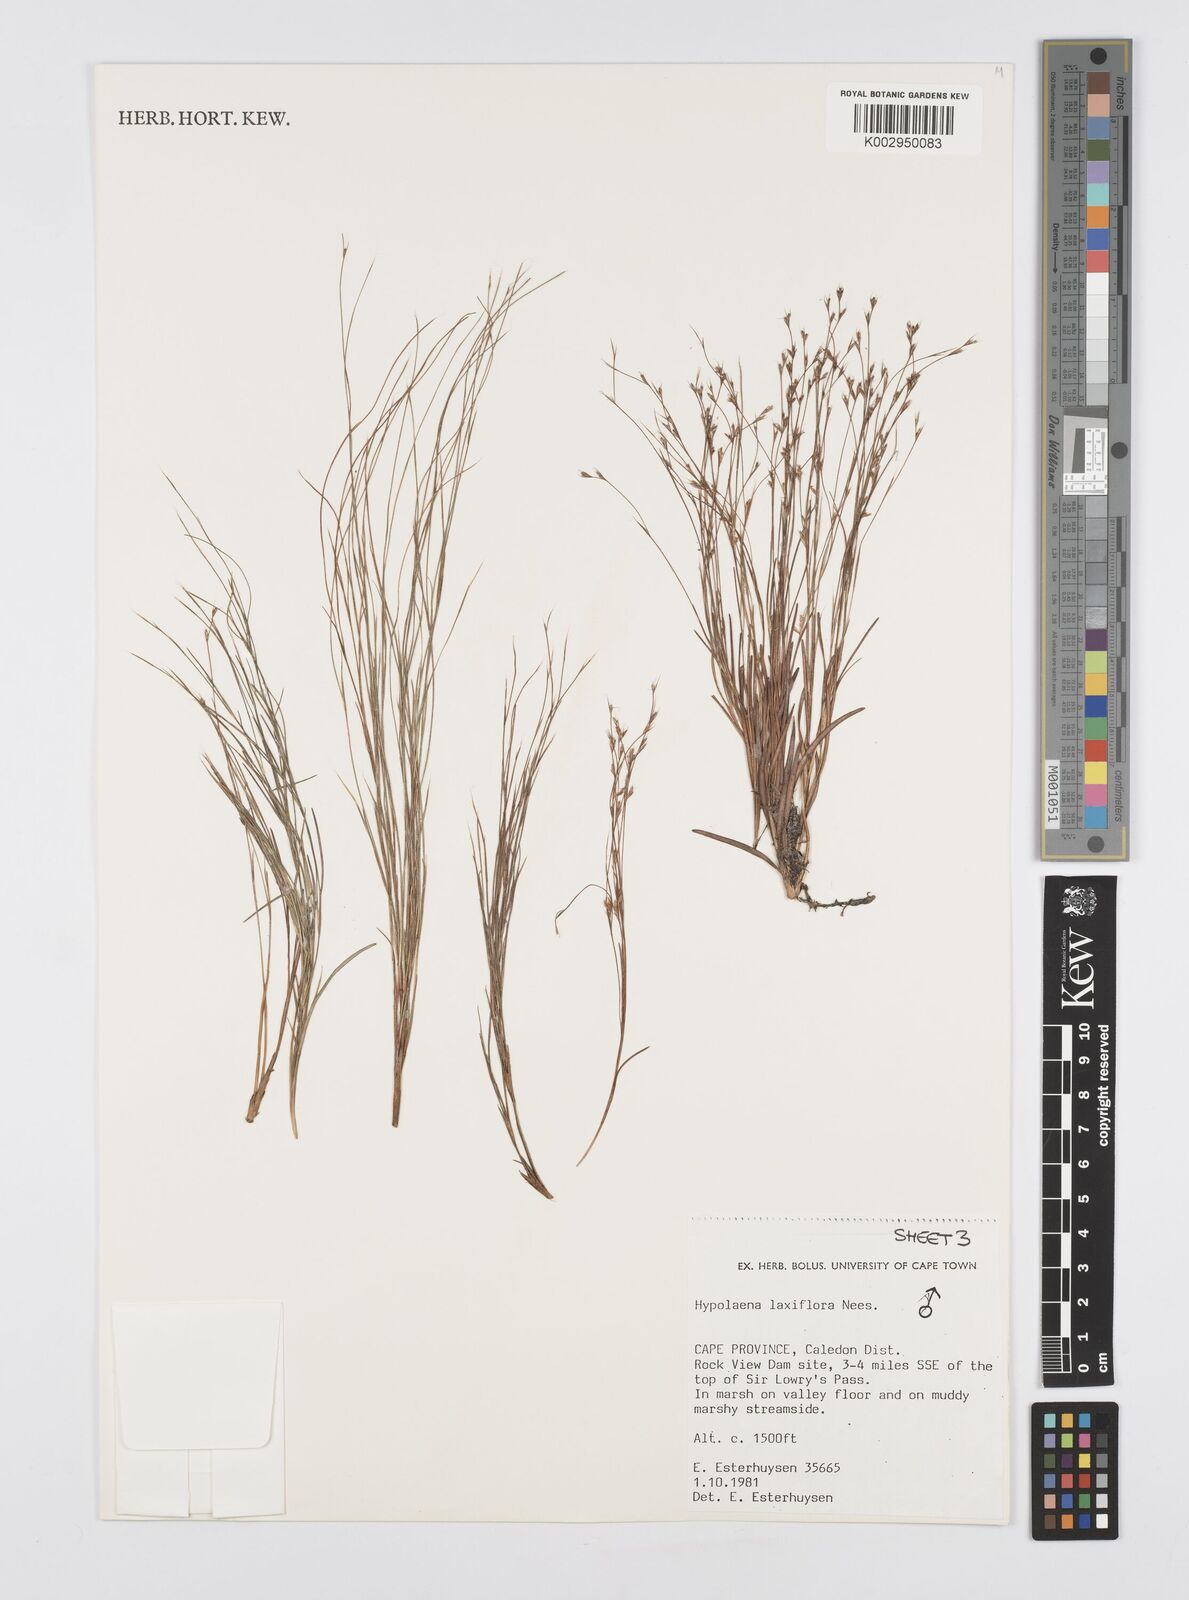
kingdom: Plantae
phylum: Tracheophyta
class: Liliopsida
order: Poales
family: Restionaceae
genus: Anthochortus
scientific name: Anthochortus laxiflorus
